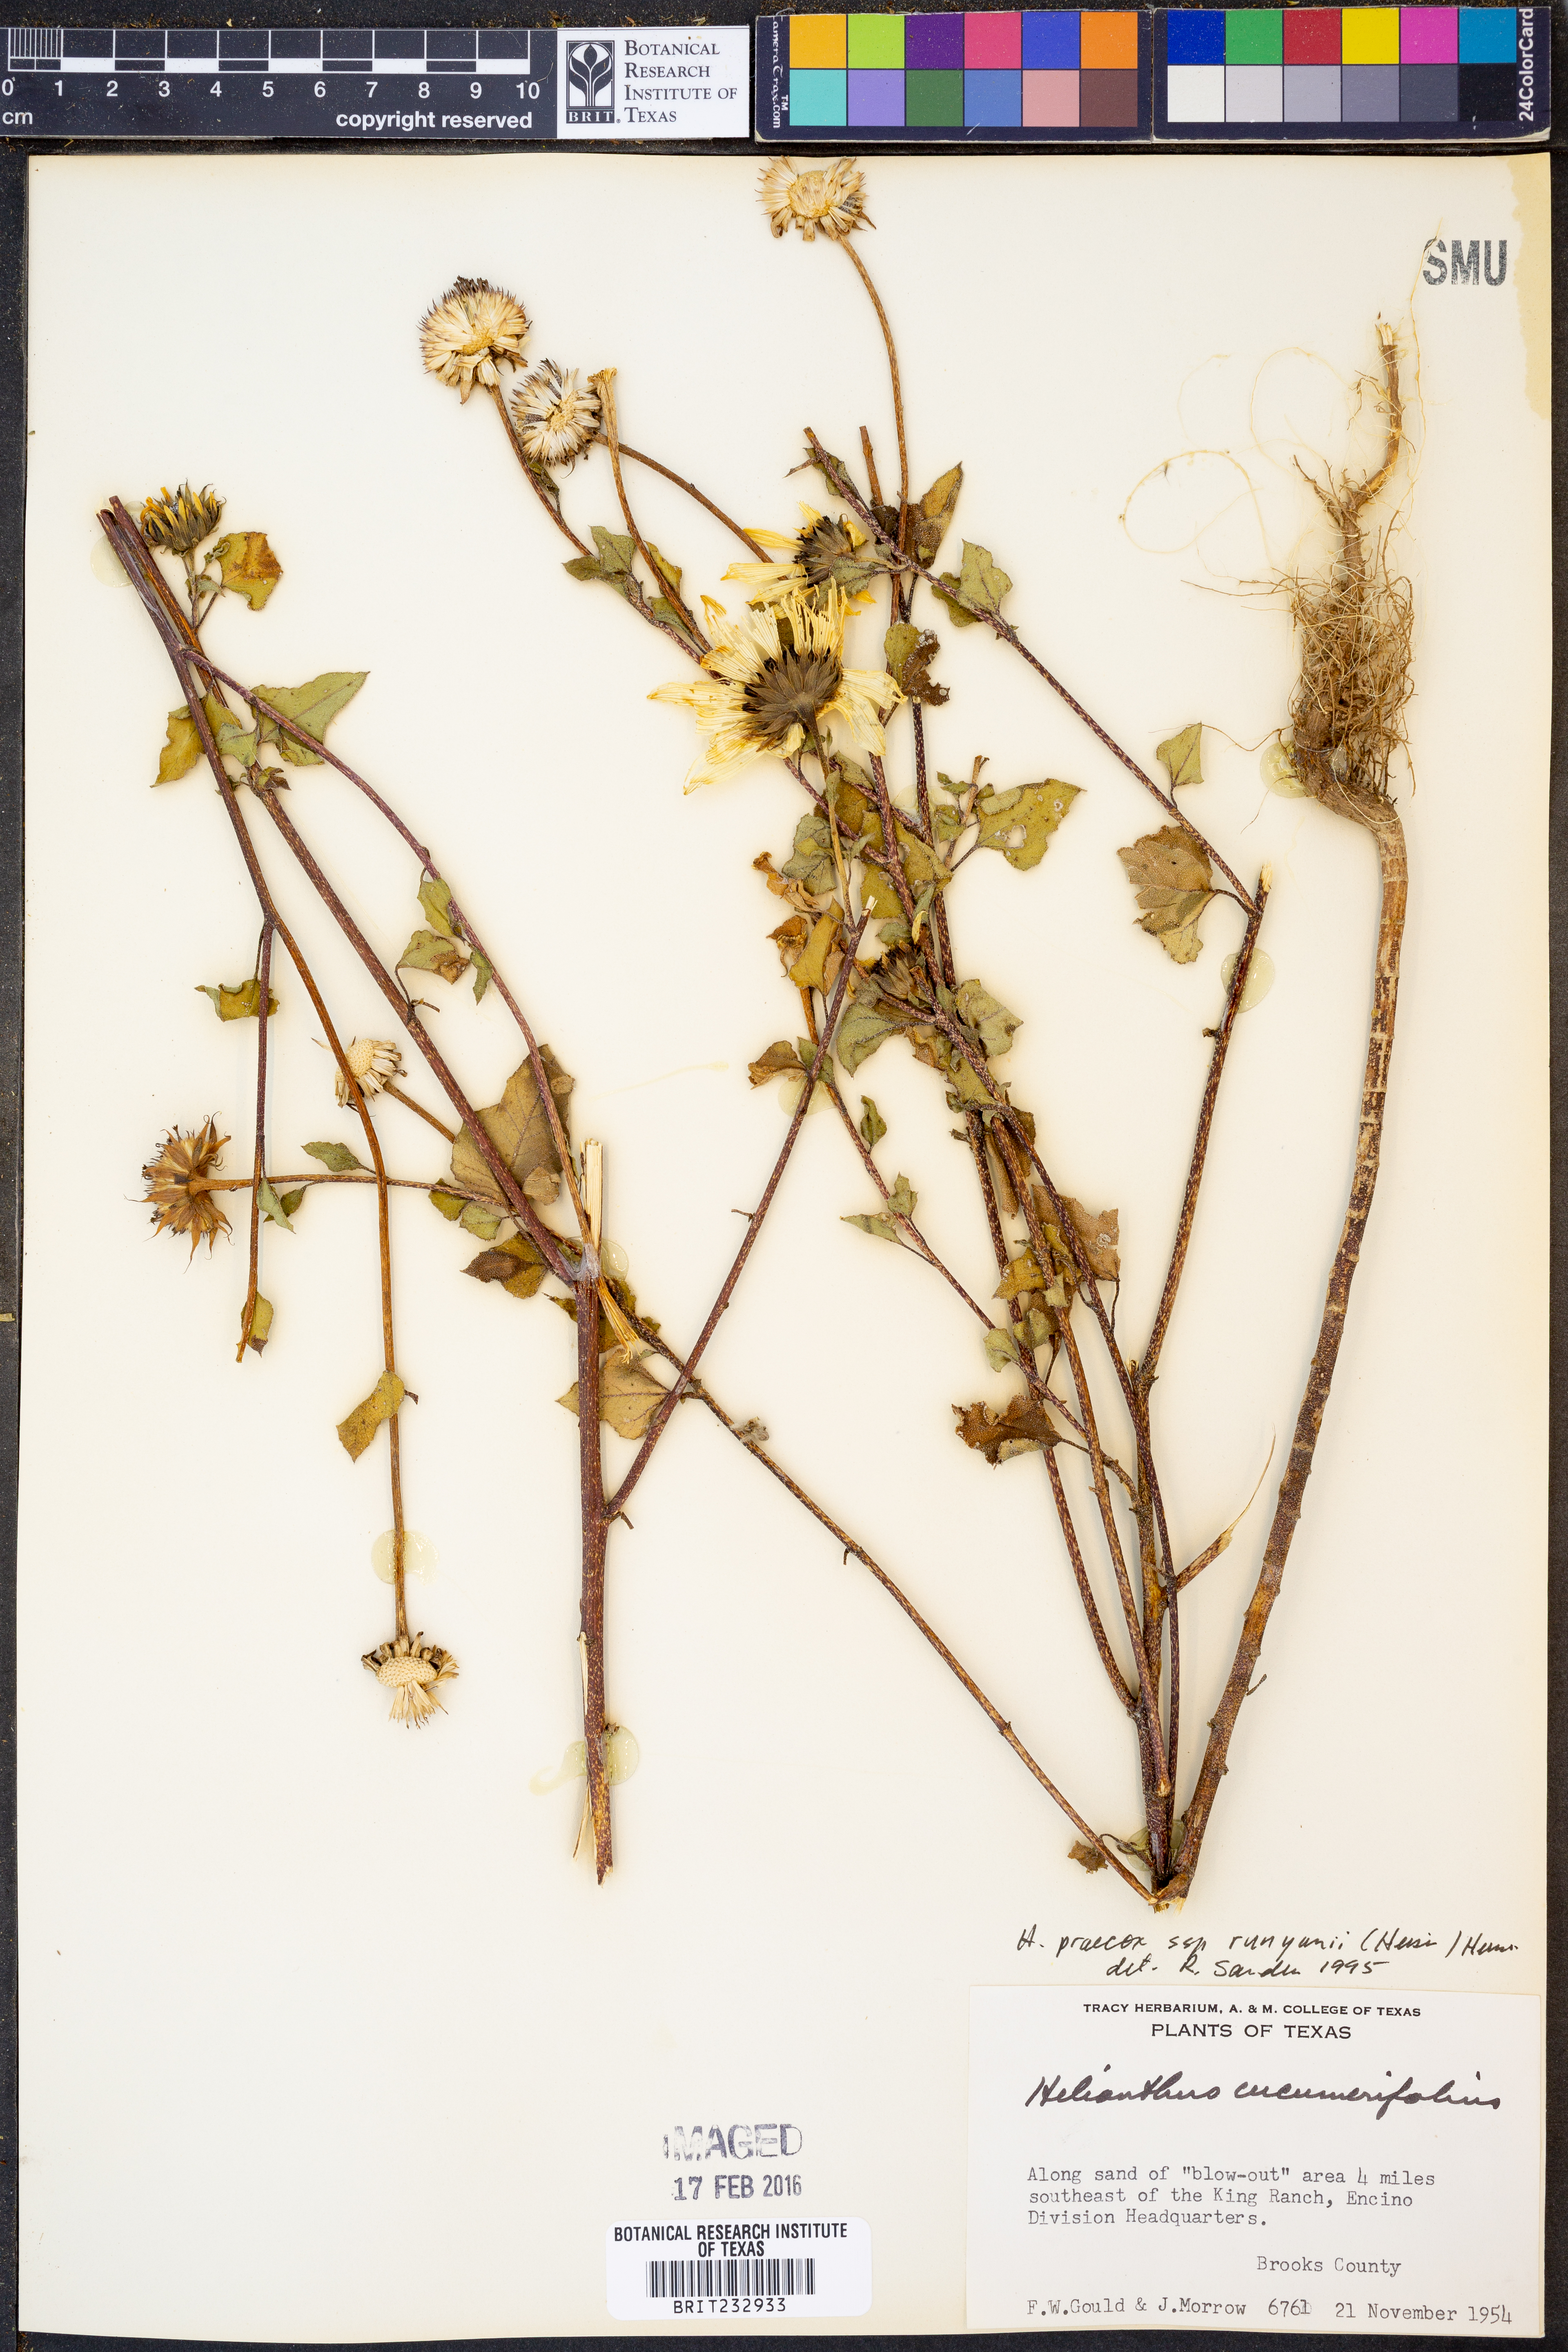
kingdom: Plantae
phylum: Tracheophyta
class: Magnoliopsida
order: Asterales
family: Asteraceae
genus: Helianthus
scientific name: Helianthus praecox
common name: Texas sunflower
